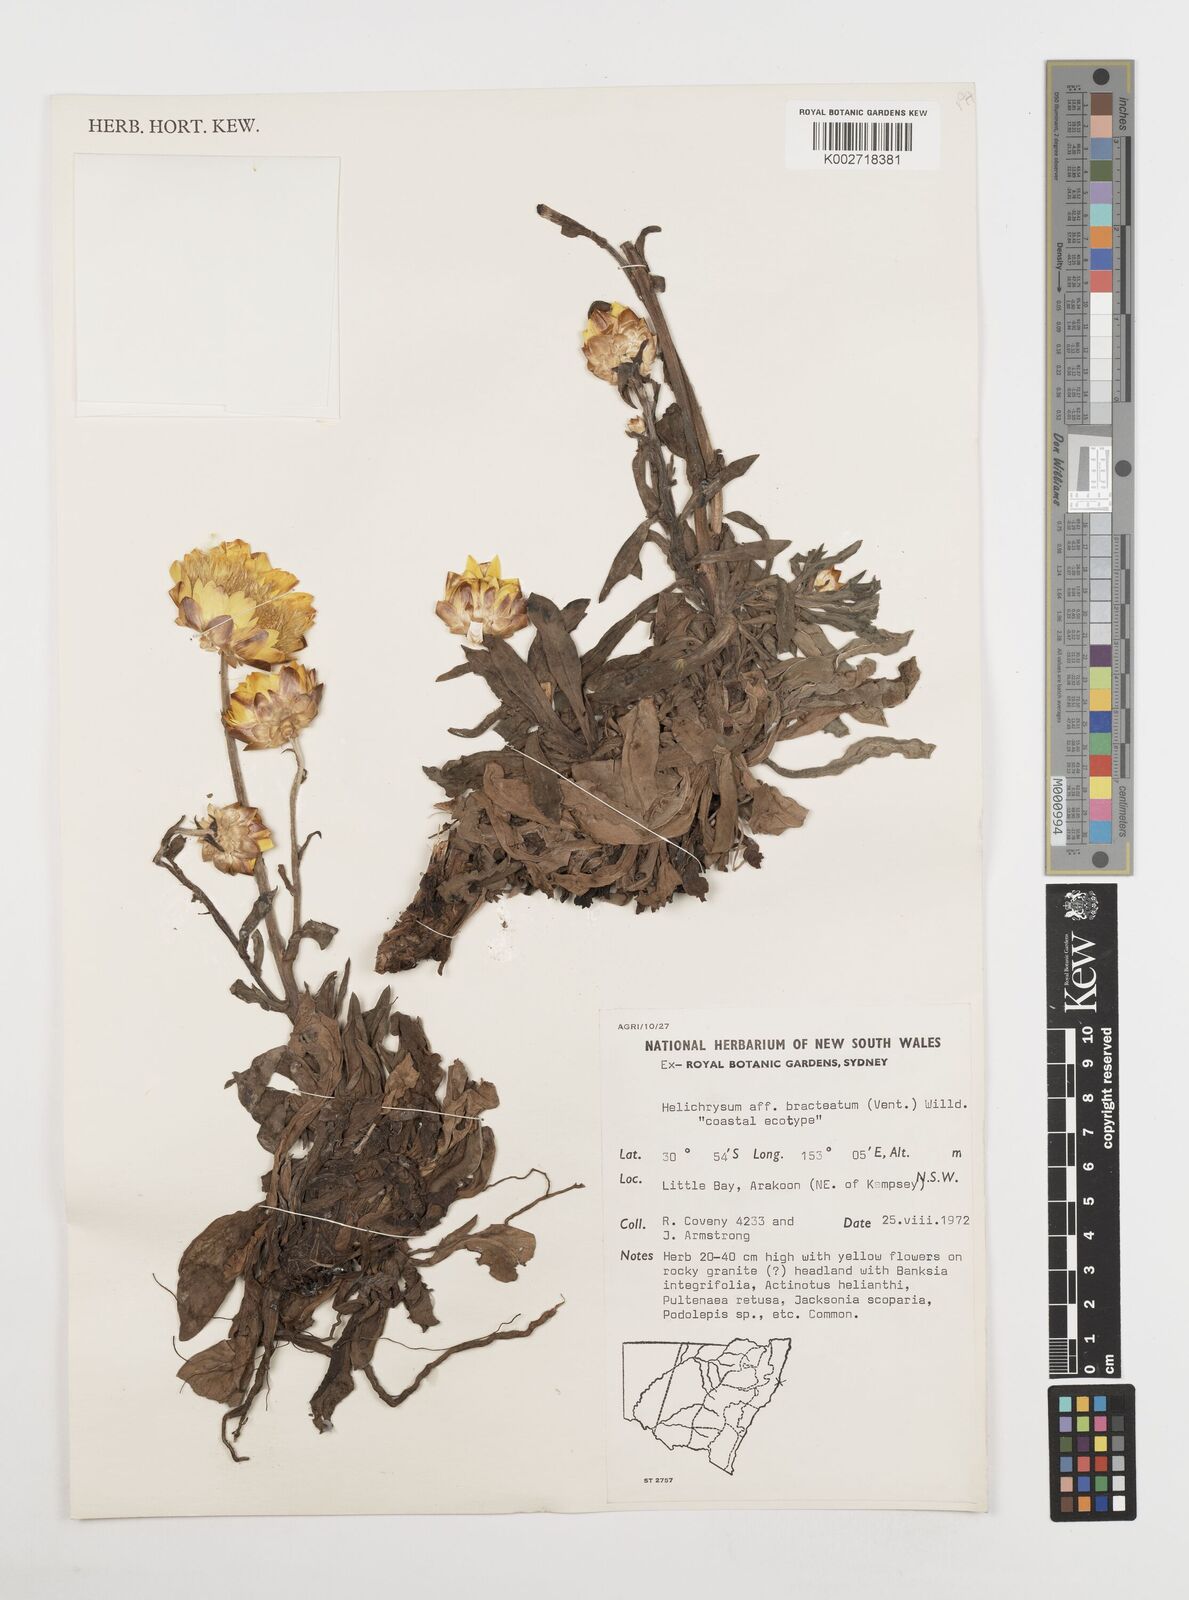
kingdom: Plantae
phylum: Tracheophyta
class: Magnoliopsida
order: Asterales
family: Asteraceae
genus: Xerochrysum
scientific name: Xerochrysum bracteatum
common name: Bracted strawflower
